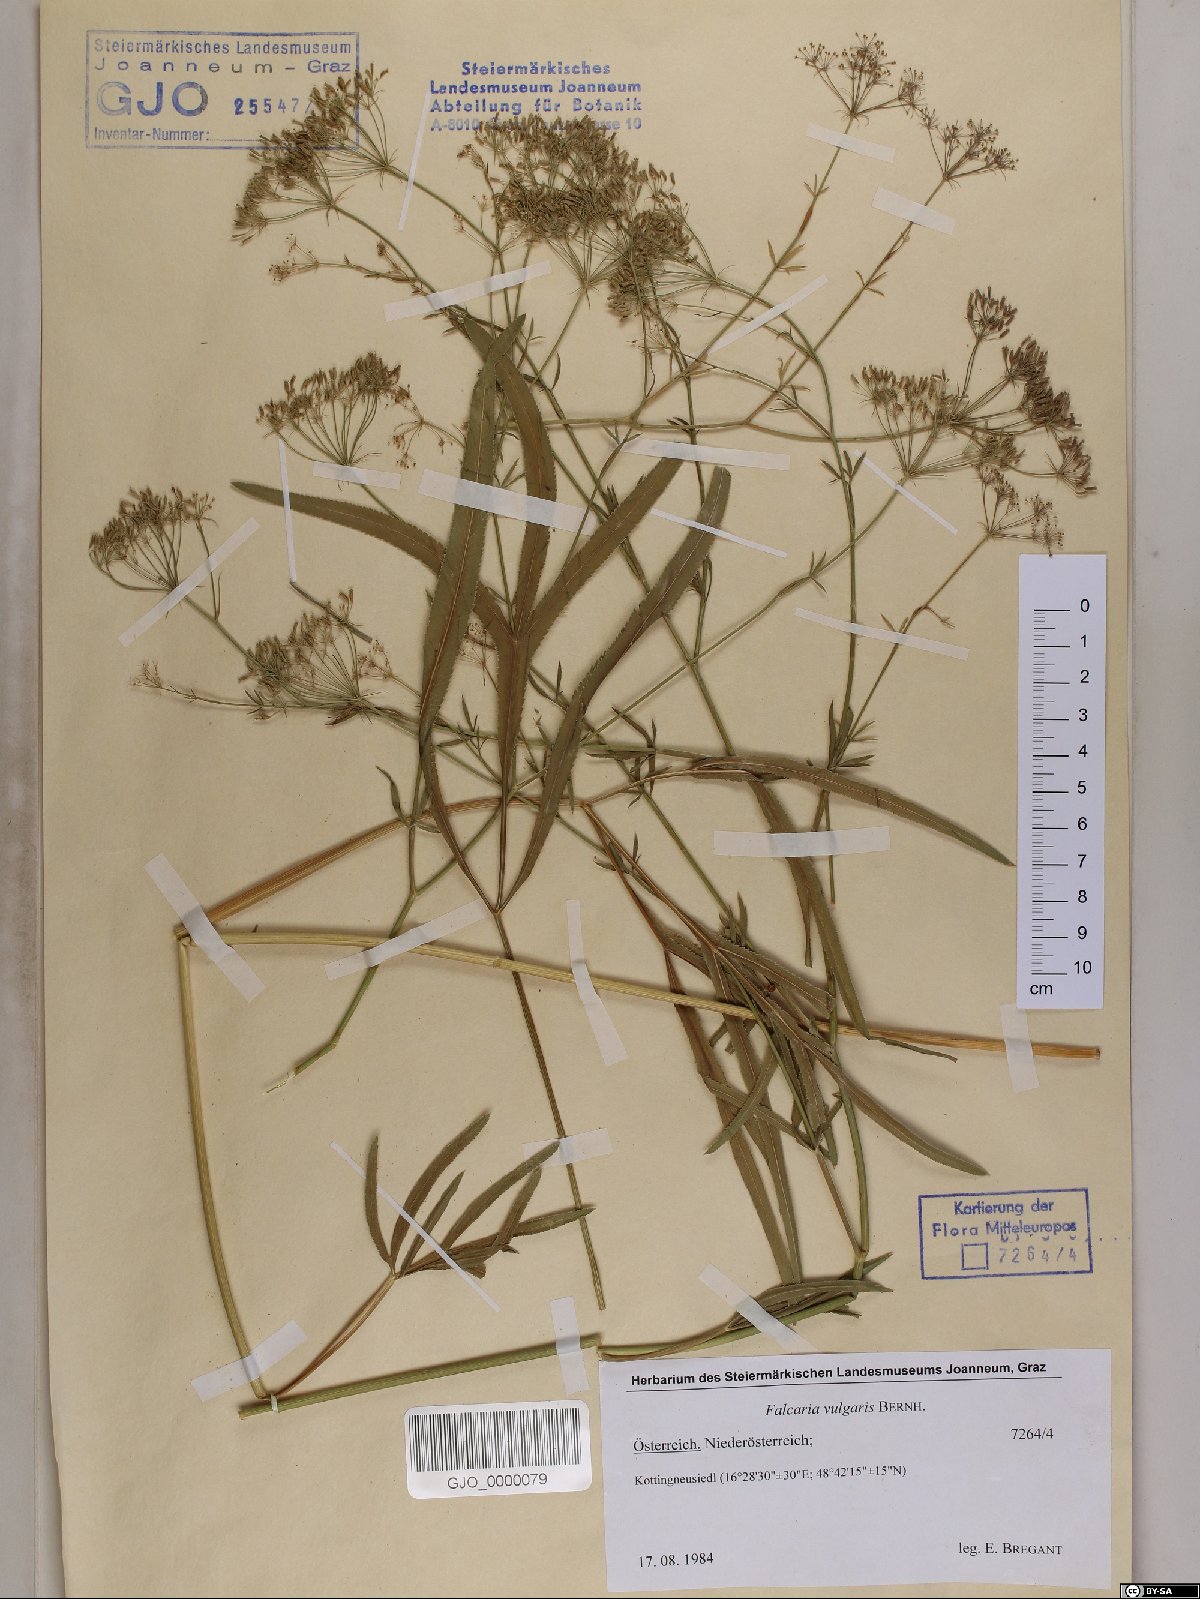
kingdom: Plantae
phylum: Tracheophyta
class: Magnoliopsida
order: Apiales
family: Apiaceae
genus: Falcaria
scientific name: Falcaria vulgaris
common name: Longleaf
